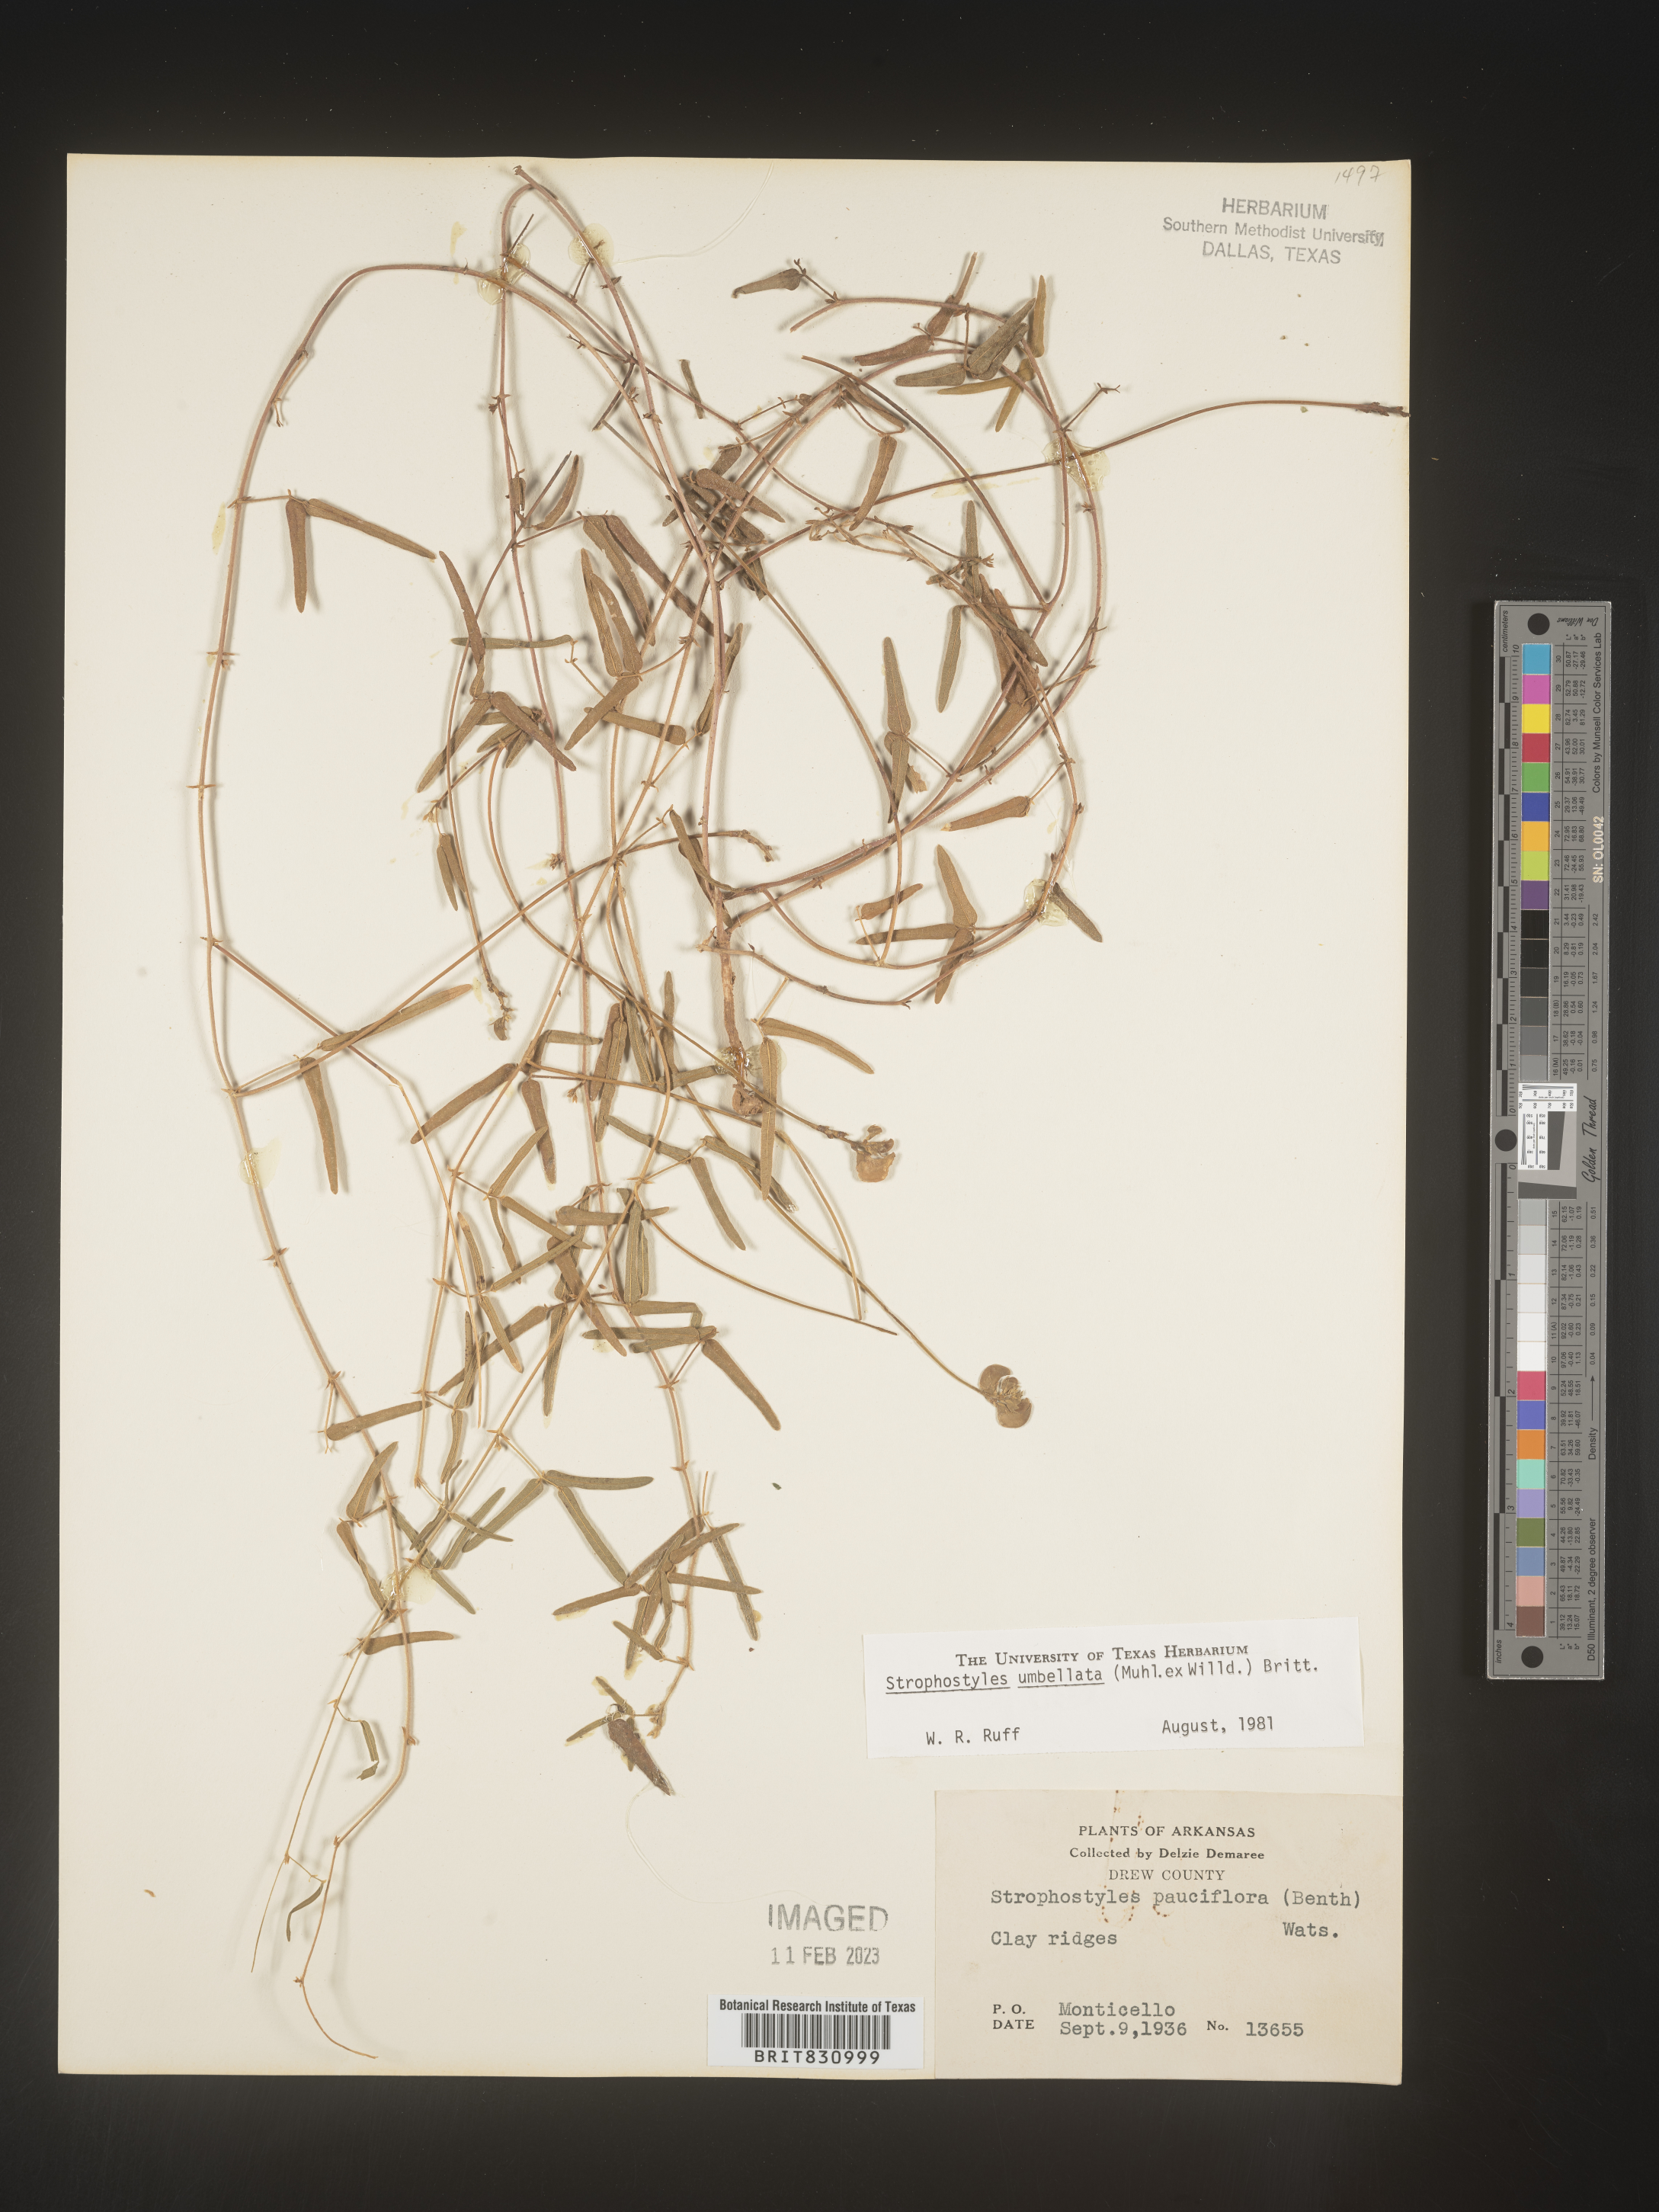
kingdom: Plantae
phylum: Tracheophyta
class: Magnoliopsida
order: Fabales
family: Fabaceae
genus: Strophostyles
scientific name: Strophostyles umbellata
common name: Perennial wild bean
